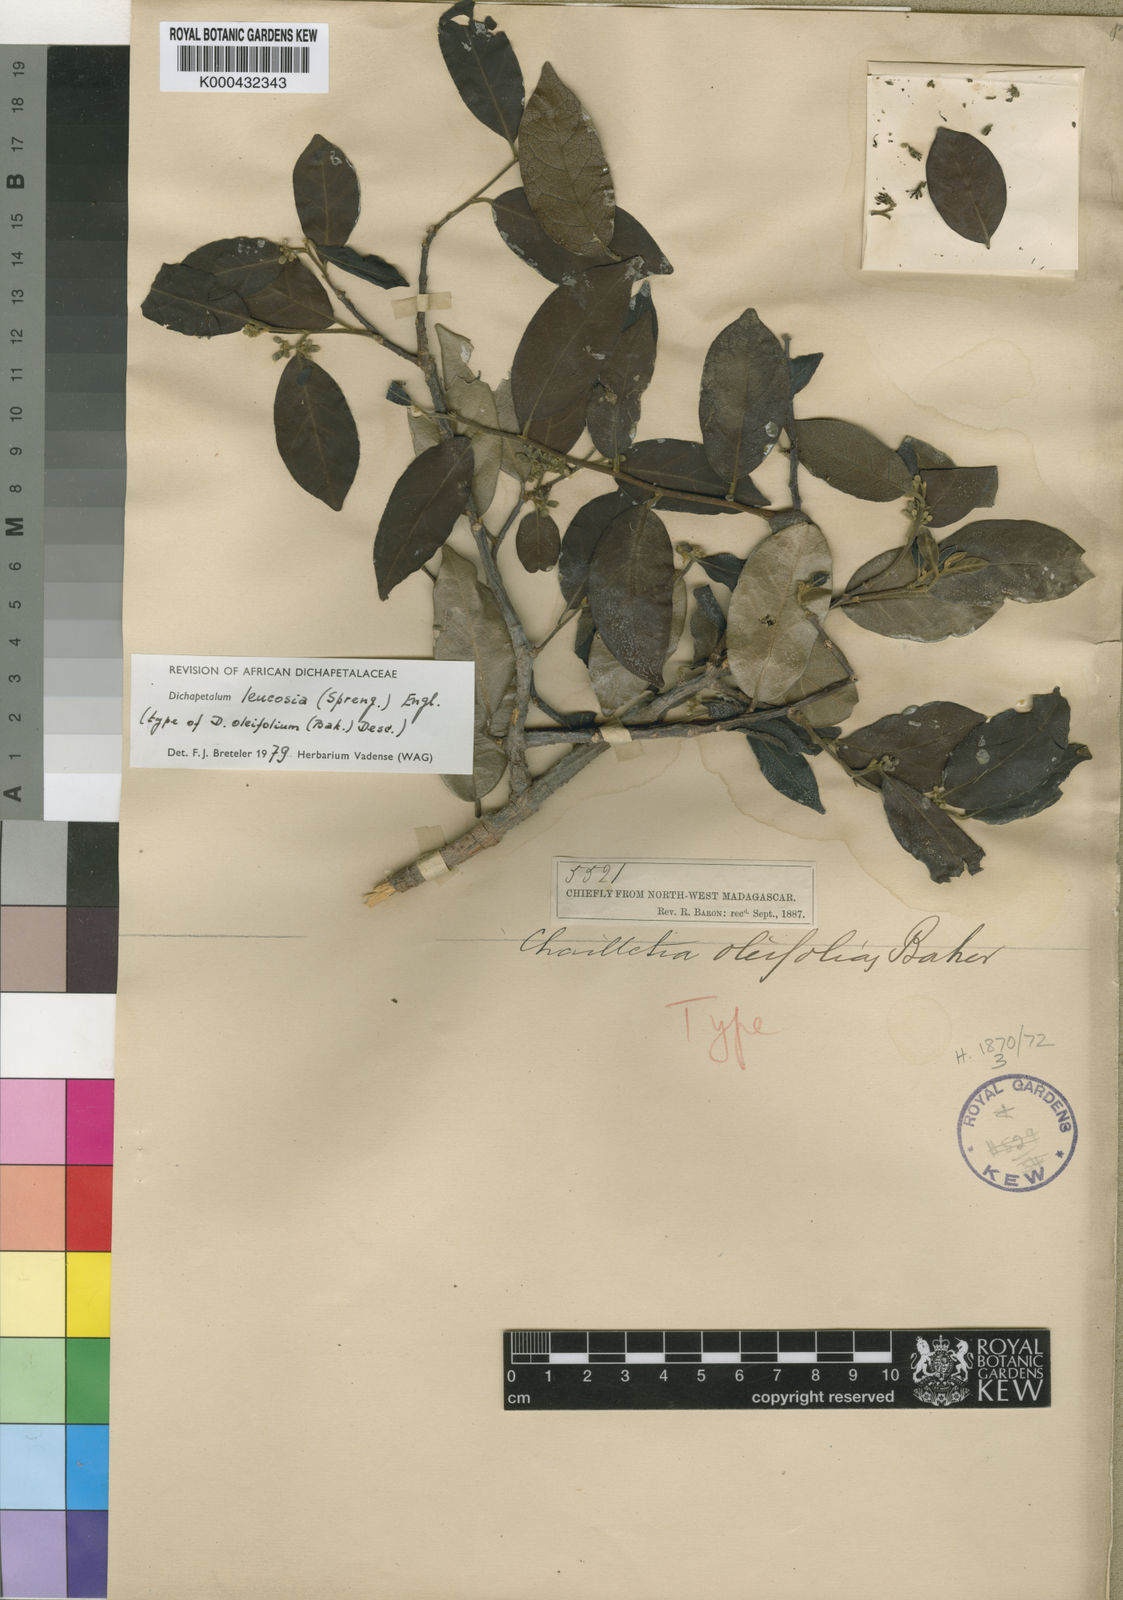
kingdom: Plantae
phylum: Tracheophyta
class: Magnoliopsida
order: Malpighiales
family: Dichapetalaceae
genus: Dichapetalum
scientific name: Dichapetalum leucosia
